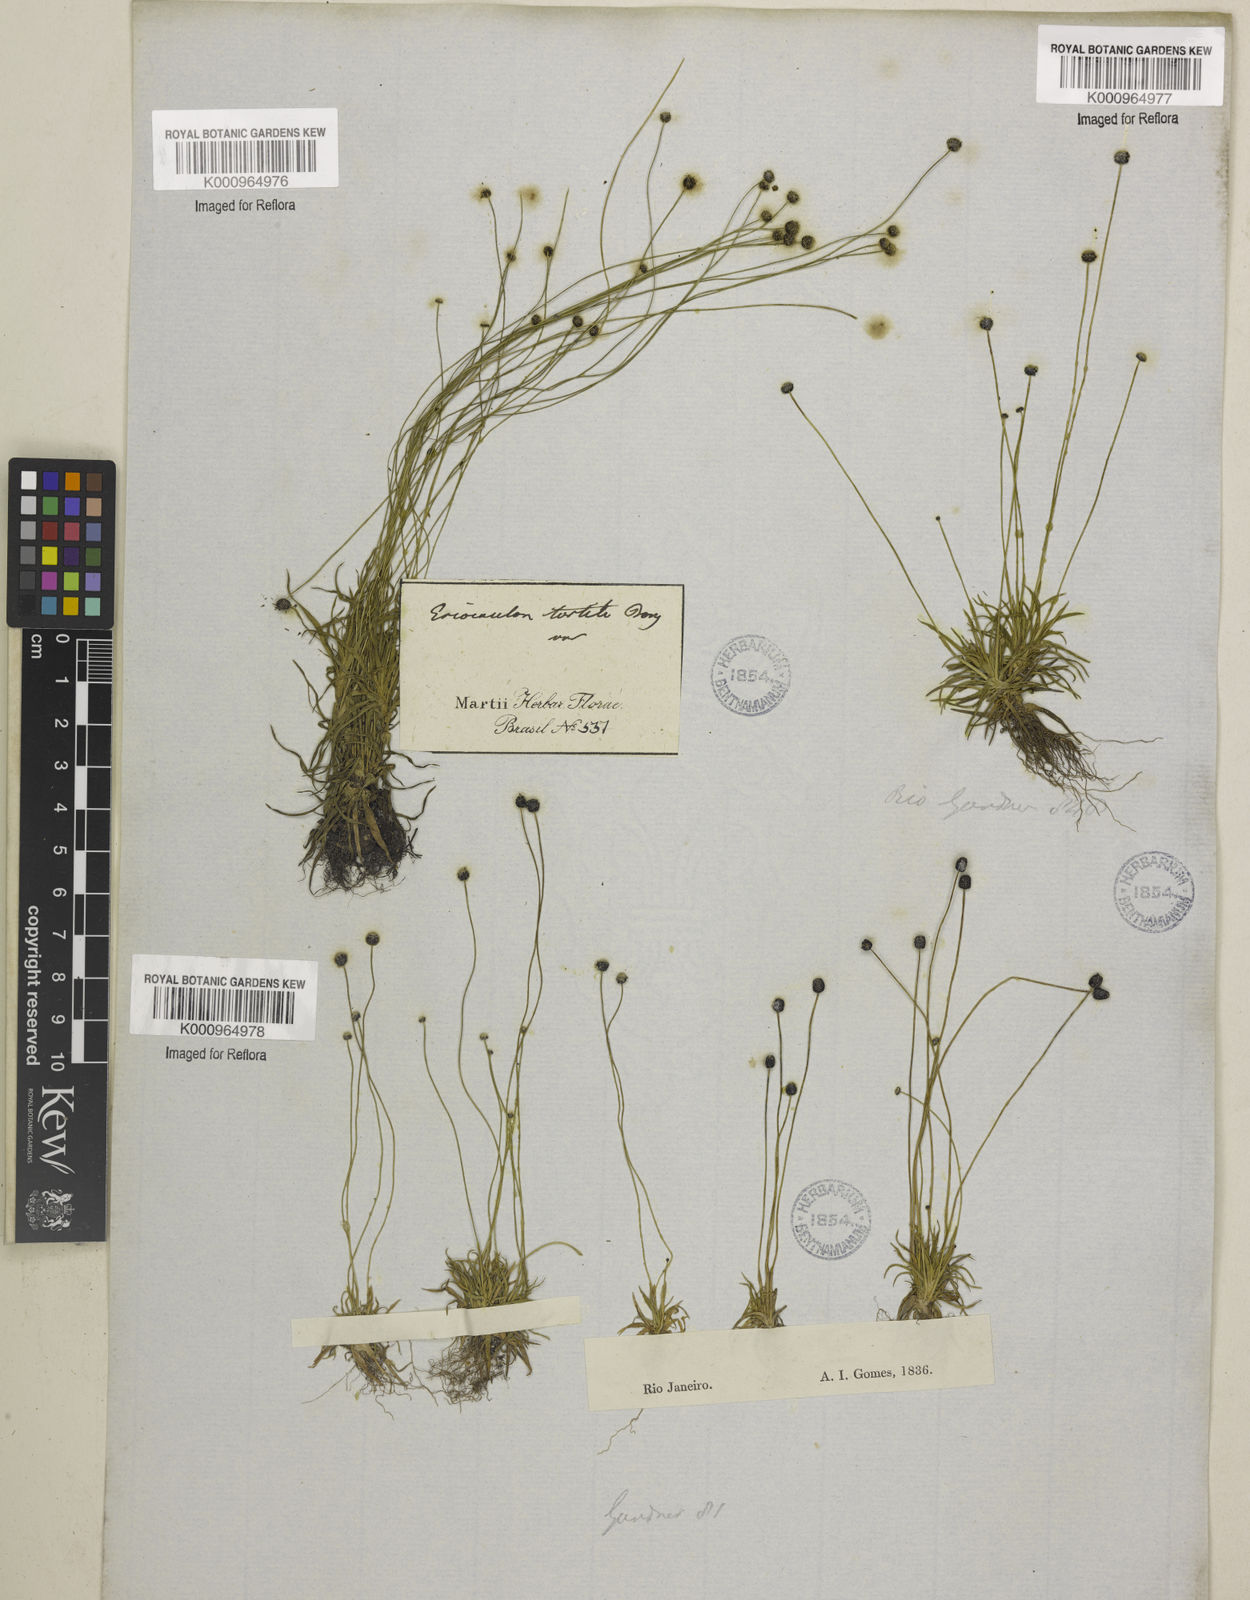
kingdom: Plantae
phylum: Tracheophyta
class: Liliopsida
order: Poales
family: Eriocaulaceae
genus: Paepalanthus
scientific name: Paepalanthus
